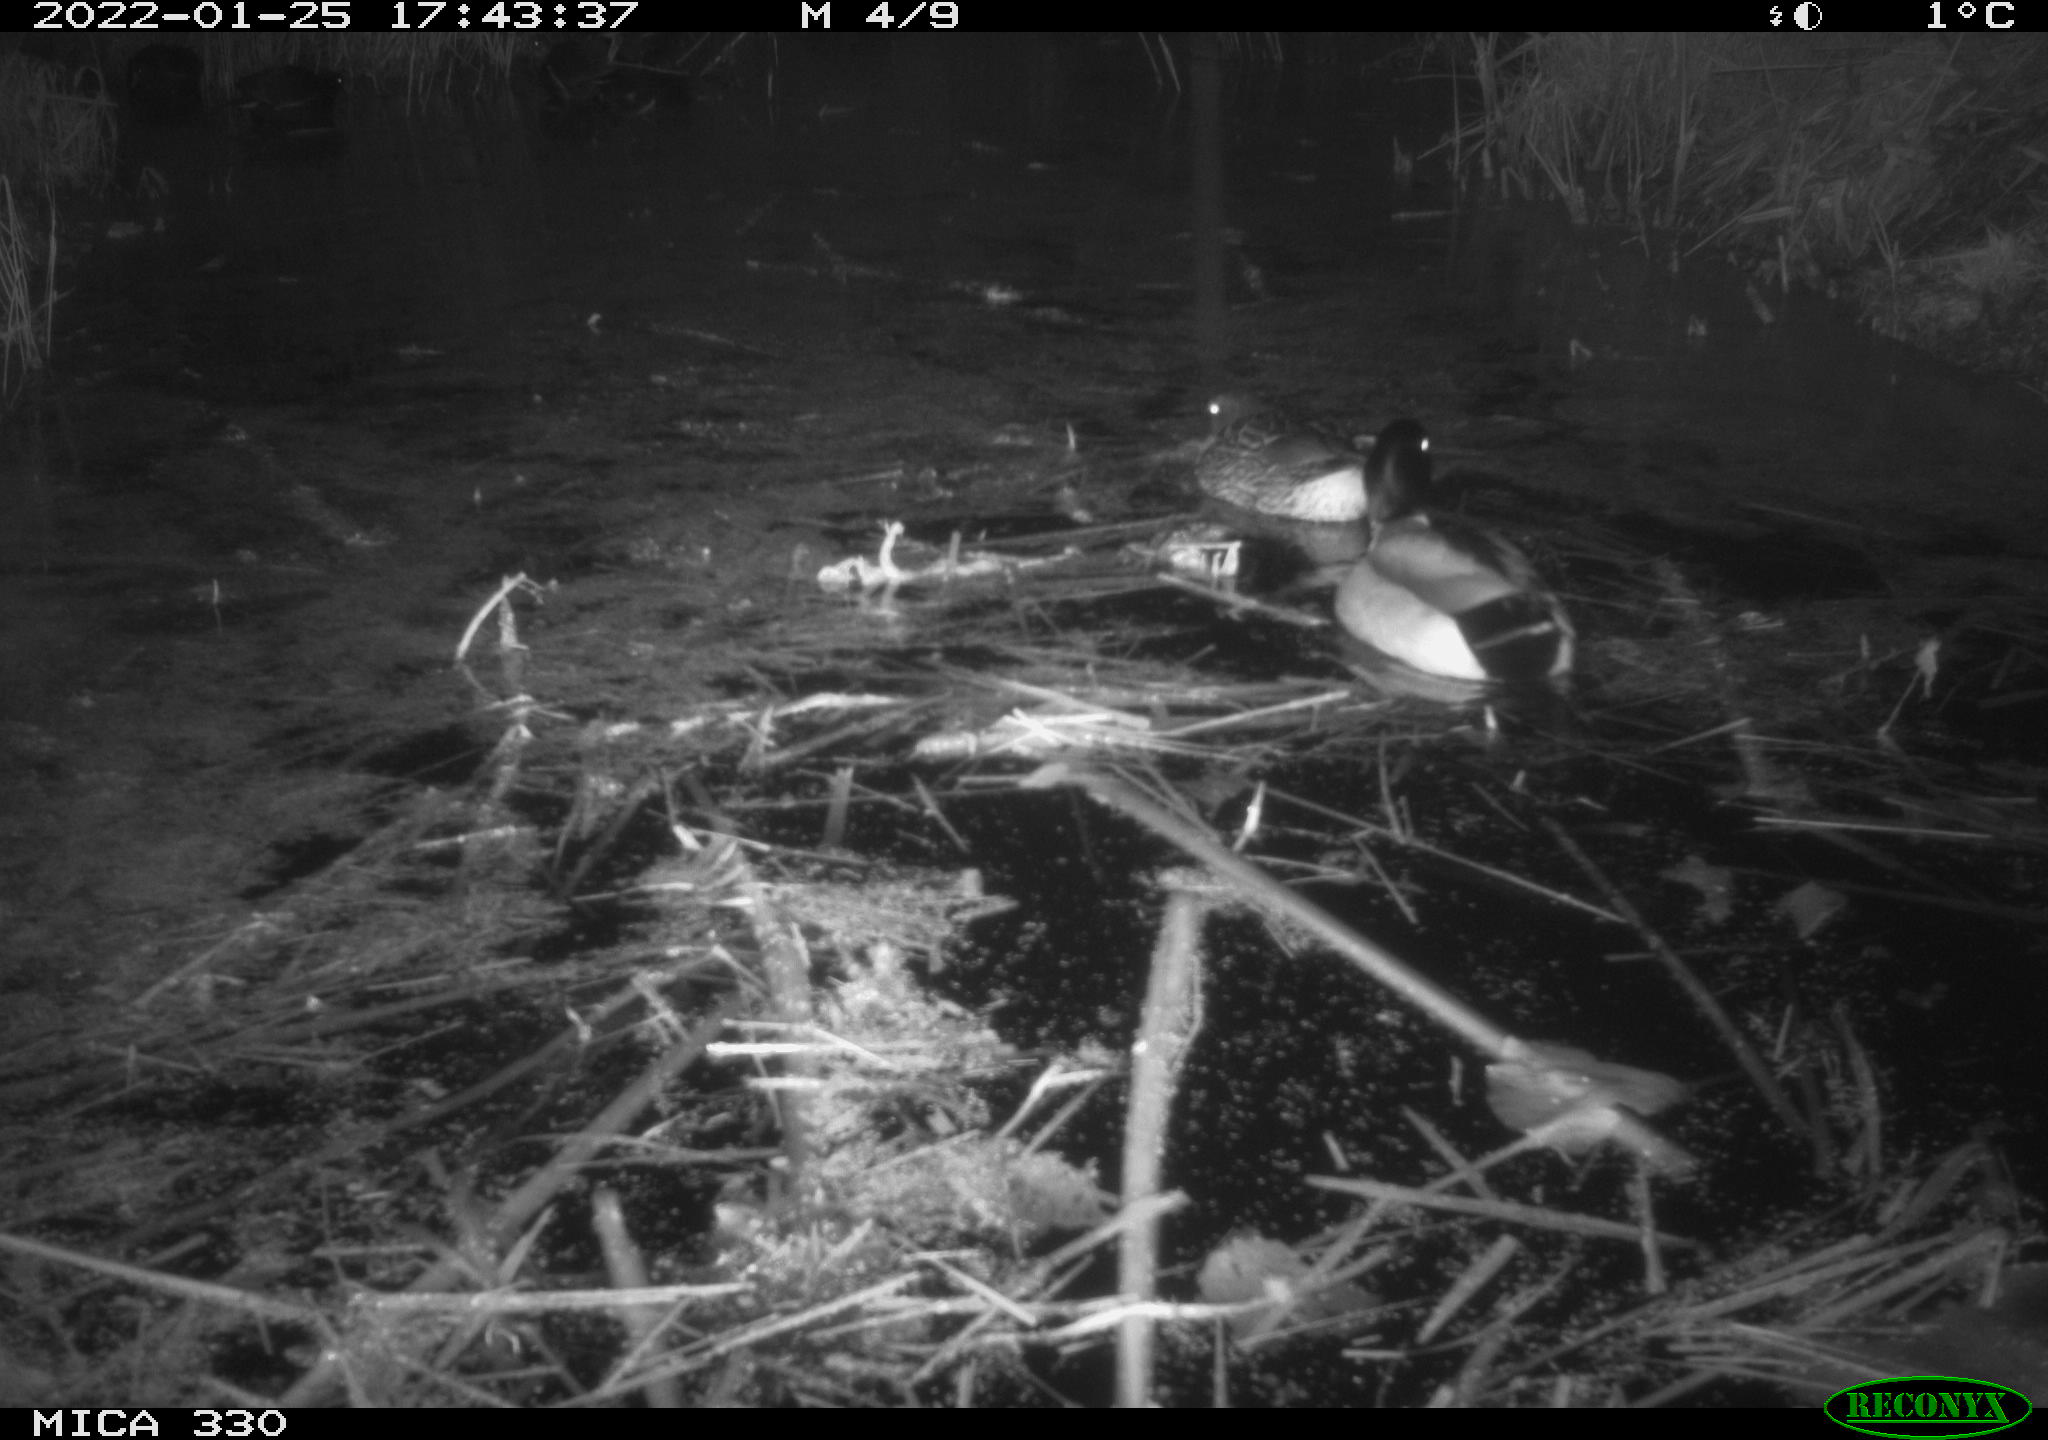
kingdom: Animalia
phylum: Chordata
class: Aves
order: Anseriformes
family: Anatidae
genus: Anas
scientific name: Anas platyrhynchos
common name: Mallard
